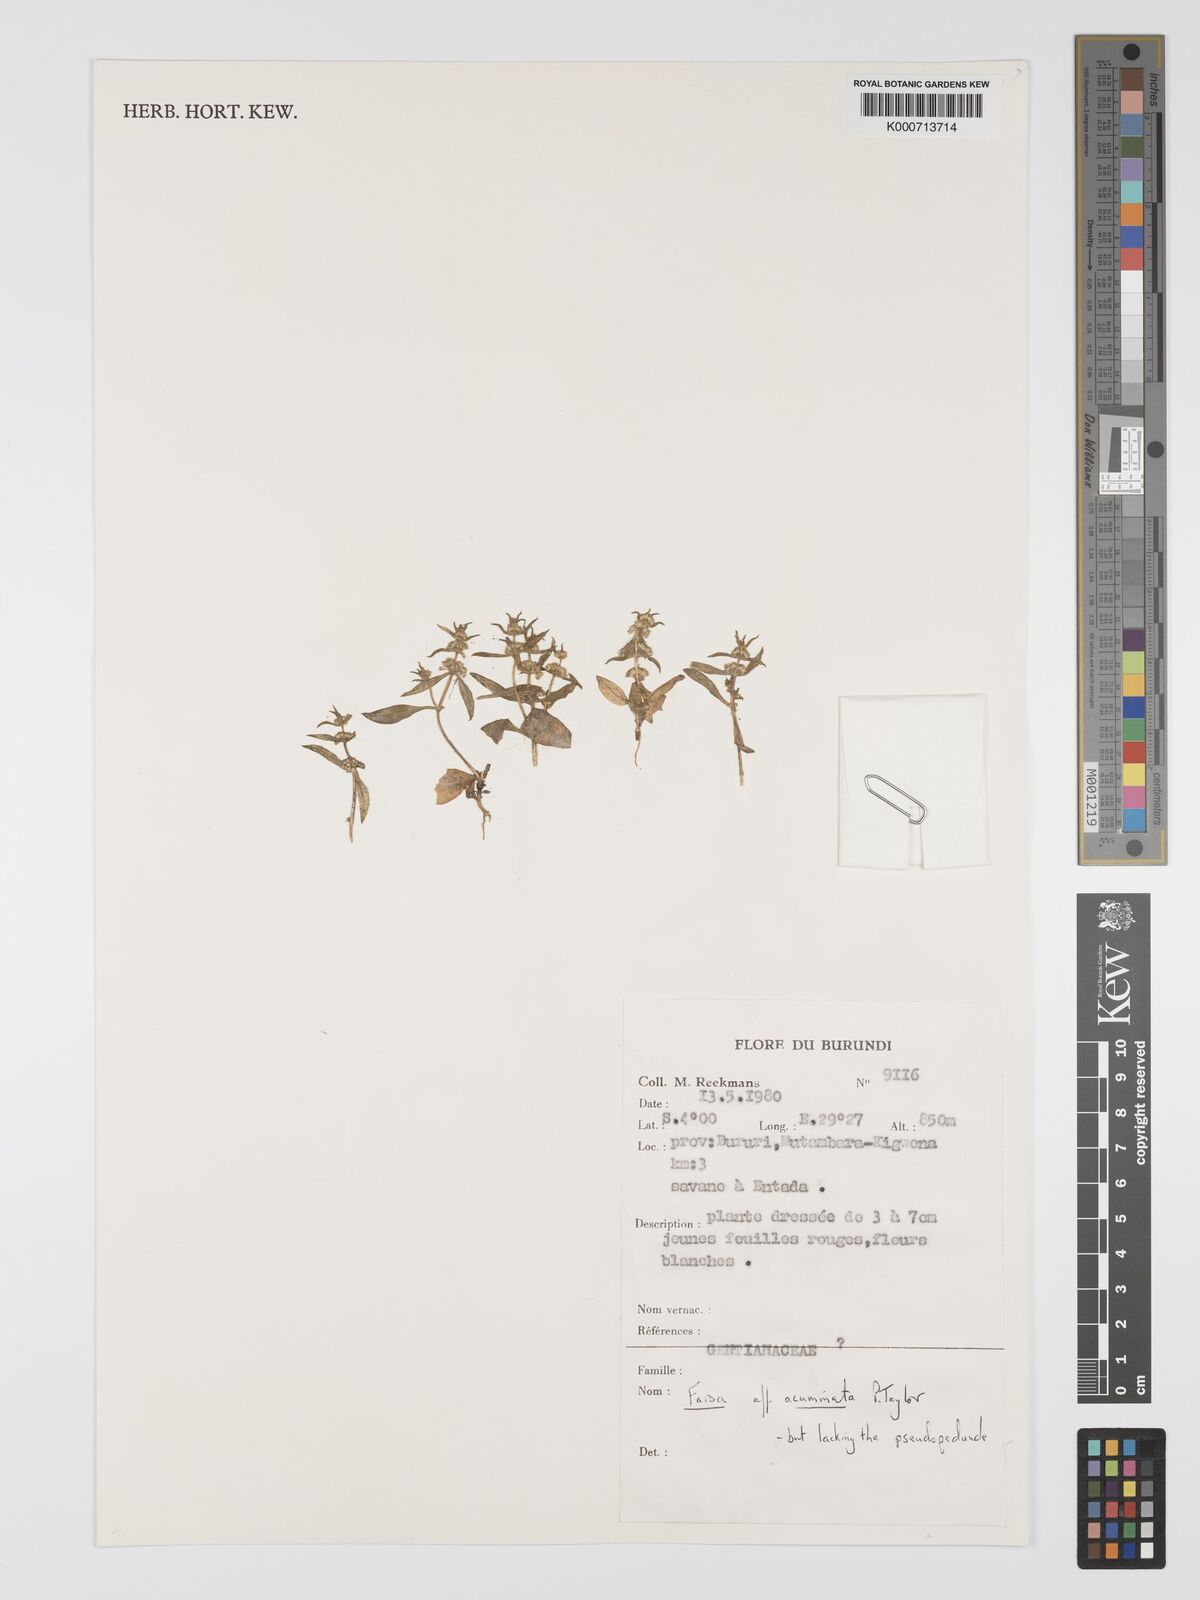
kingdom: Plantae
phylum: Tracheophyta
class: Magnoliopsida
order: Gentianales
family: Gentianaceae
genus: Faroa
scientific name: Faroa acuminata
